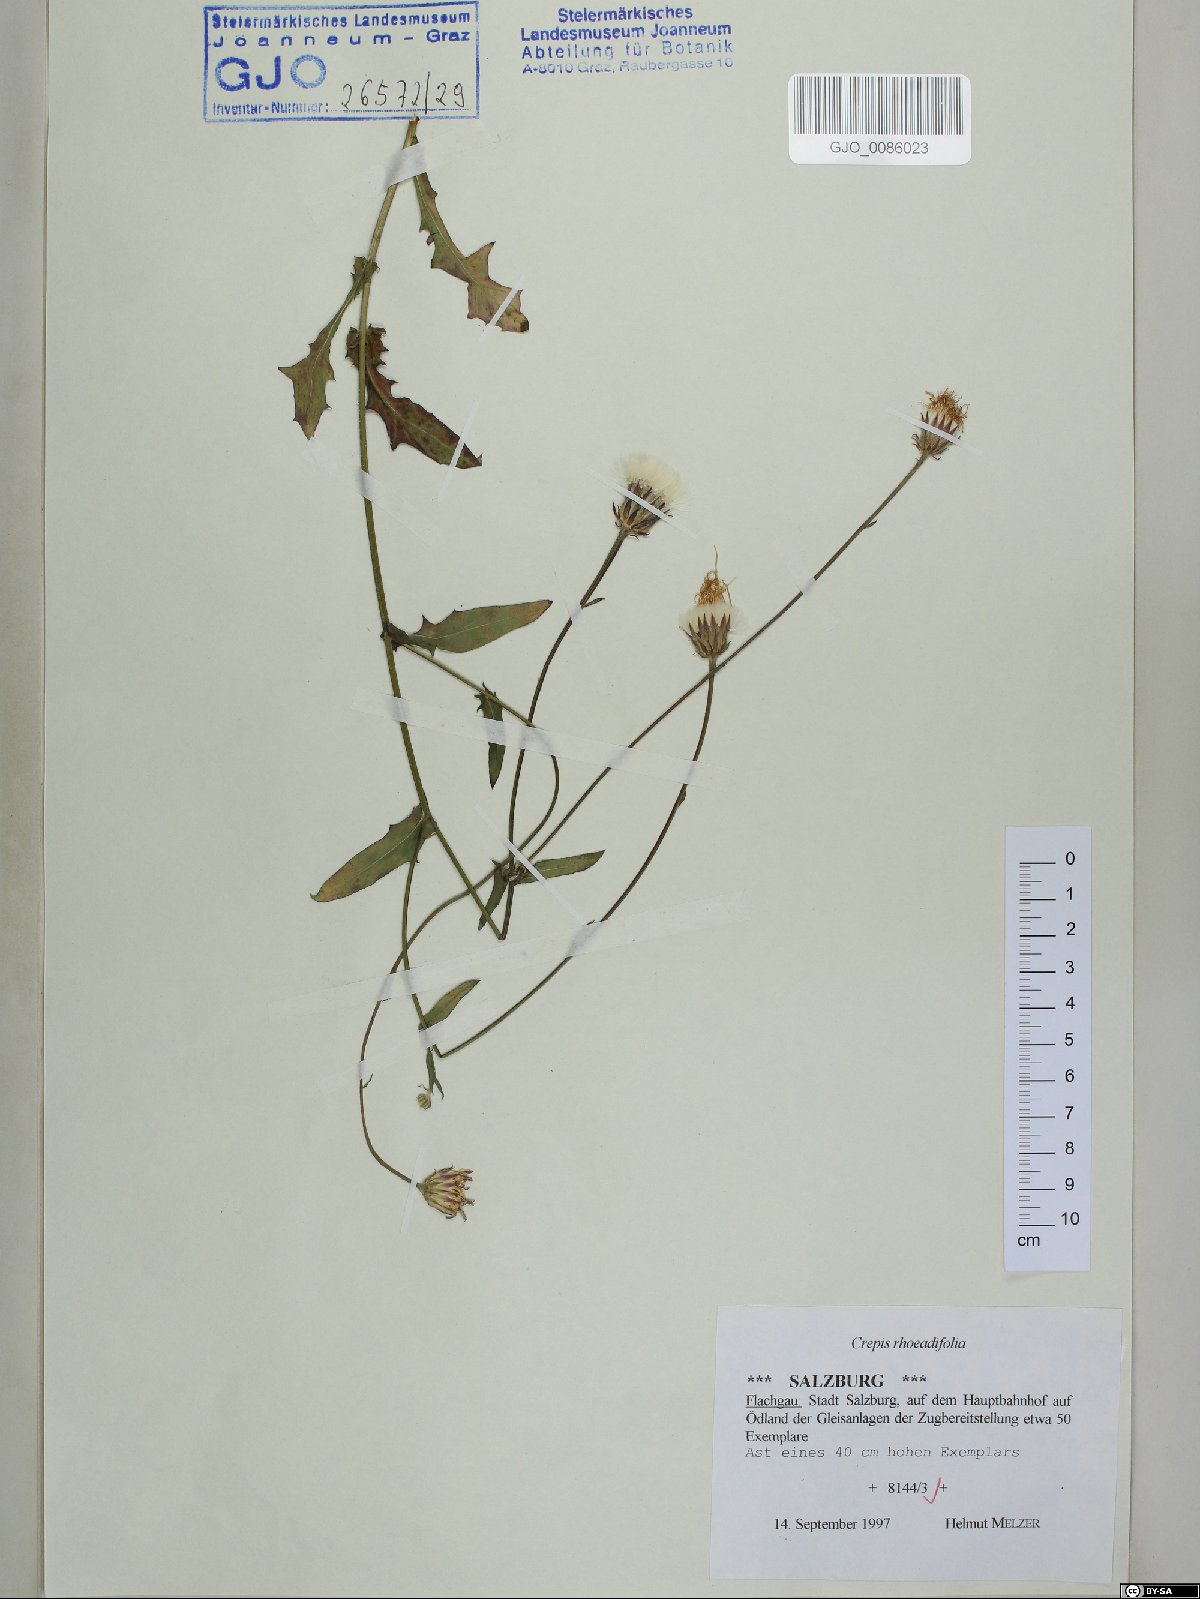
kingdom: Plantae
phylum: Tracheophyta
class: Magnoliopsida
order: Asterales
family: Asteraceae
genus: Crepis
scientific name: Crepis foetida
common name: Stinking hawk's-beard
